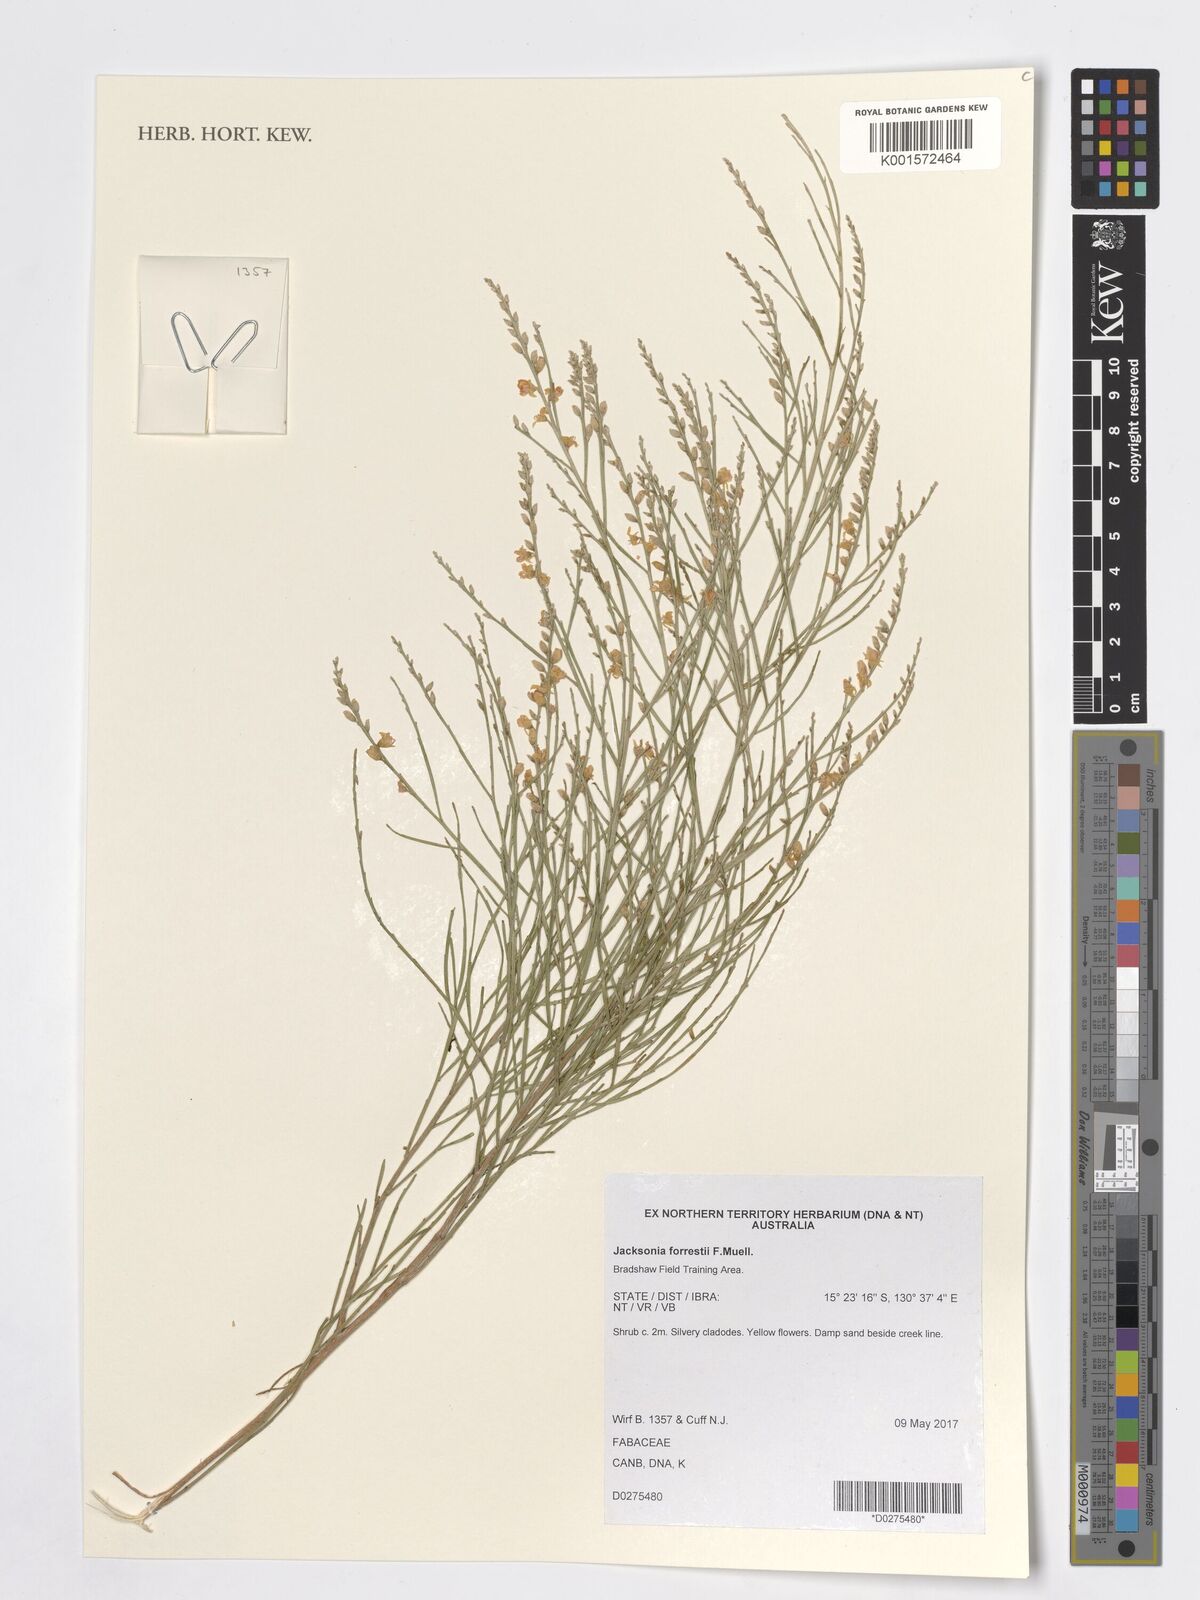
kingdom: Plantae
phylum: Tracheophyta
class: Magnoliopsida
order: Fabales
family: Fabaceae
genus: Jacksonia
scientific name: Jacksonia forrestii
